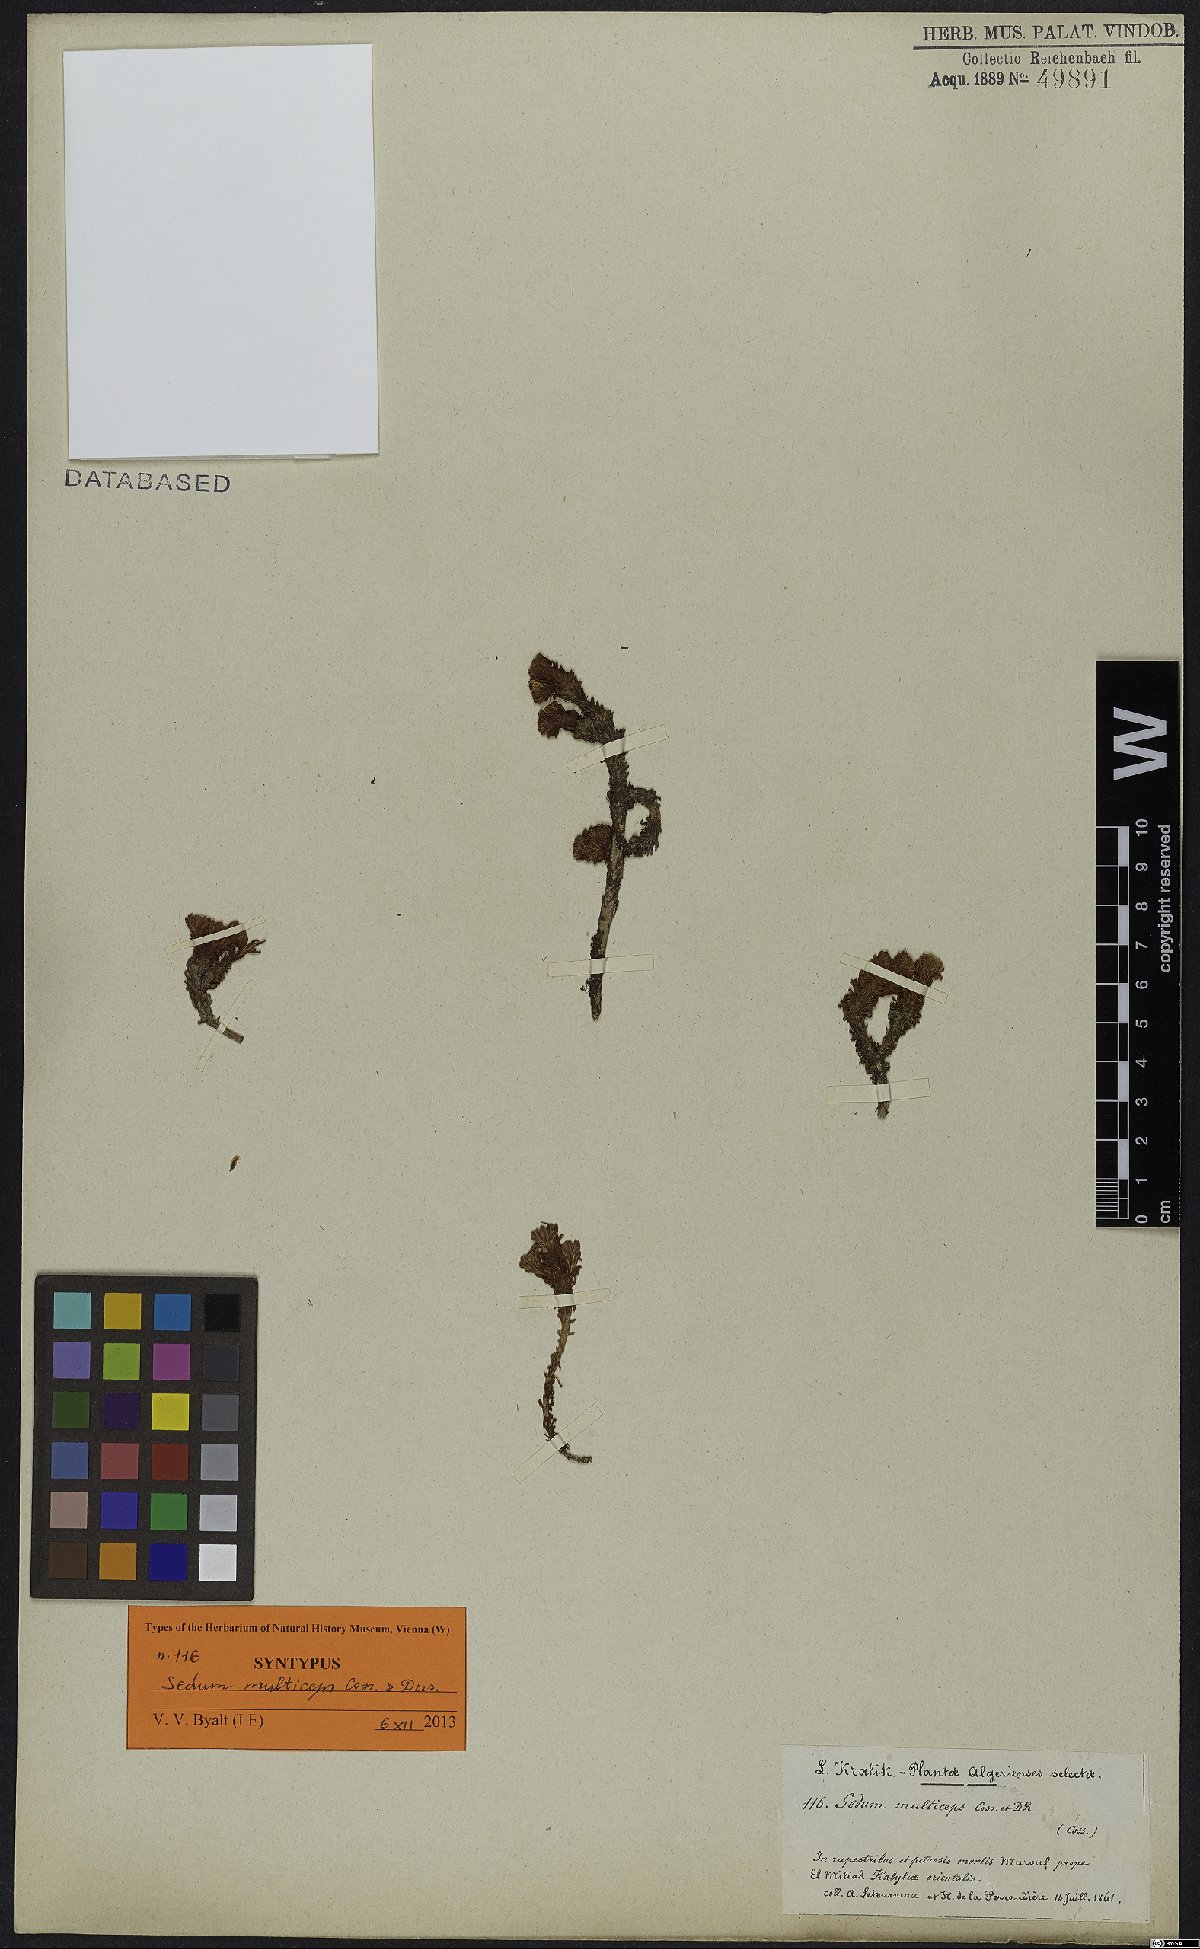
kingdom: Plantae
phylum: Tracheophyta
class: Magnoliopsida
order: Saxifragales
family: Crassulaceae
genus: Sedum
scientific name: Sedum multiceps
